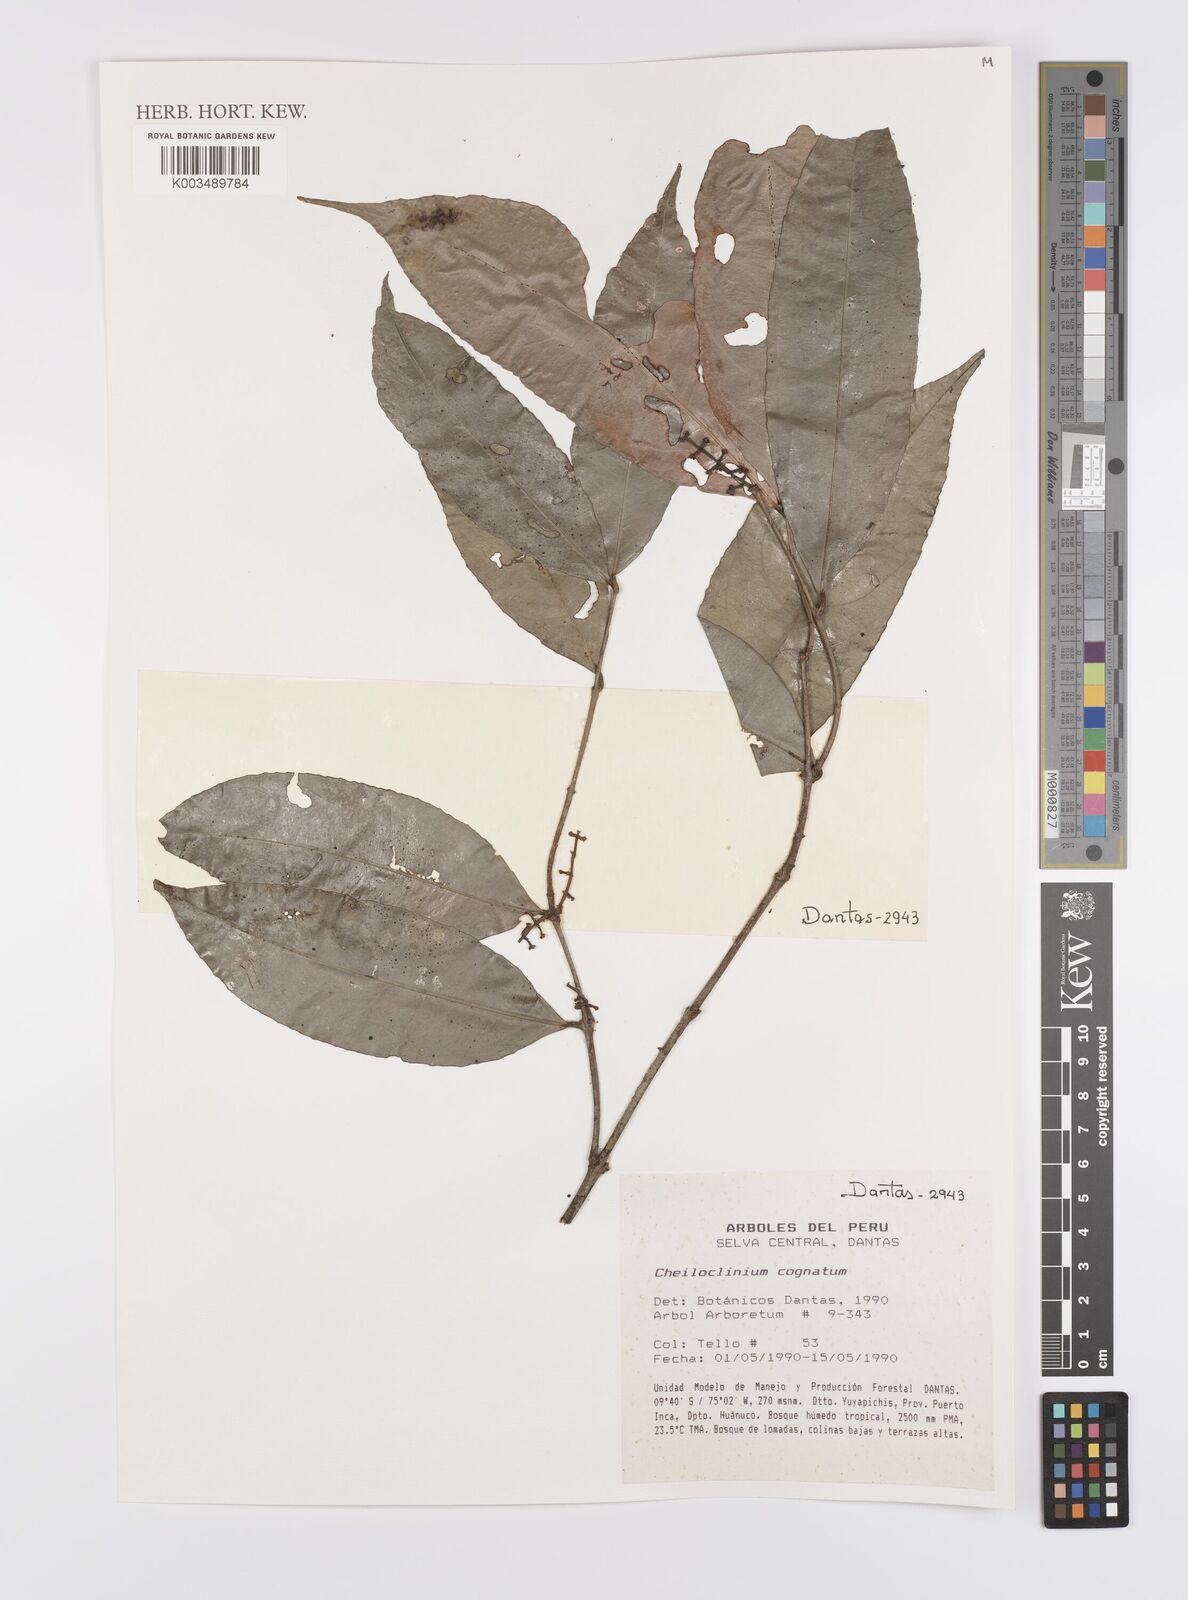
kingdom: Plantae
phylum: Tracheophyta
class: Magnoliopsida
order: Celastrales
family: Celastraceae
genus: Cheiloclinium
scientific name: Cheiloclinium cognatum
